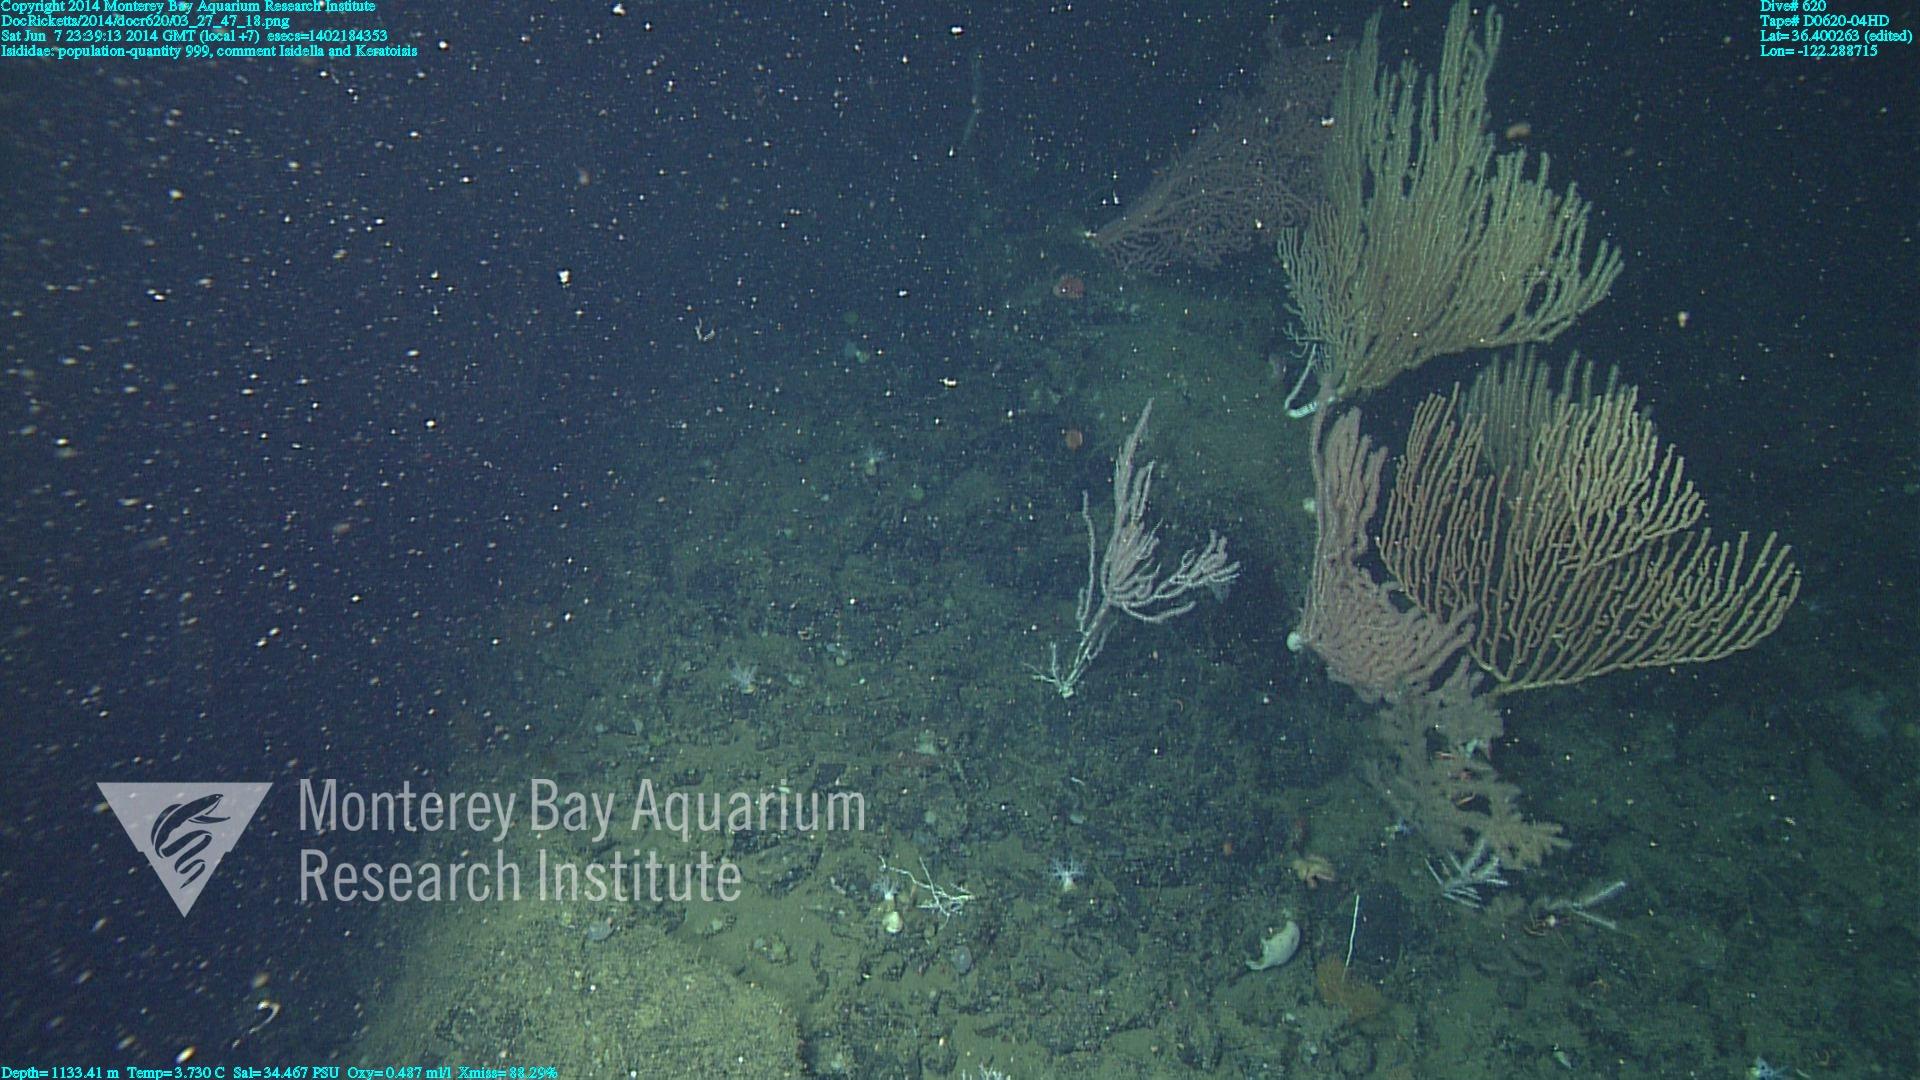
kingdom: Animalia
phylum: Cnidaria
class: Anthozoa
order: Scleralcyonacea
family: Keratoisididae
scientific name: Keratoisididae
